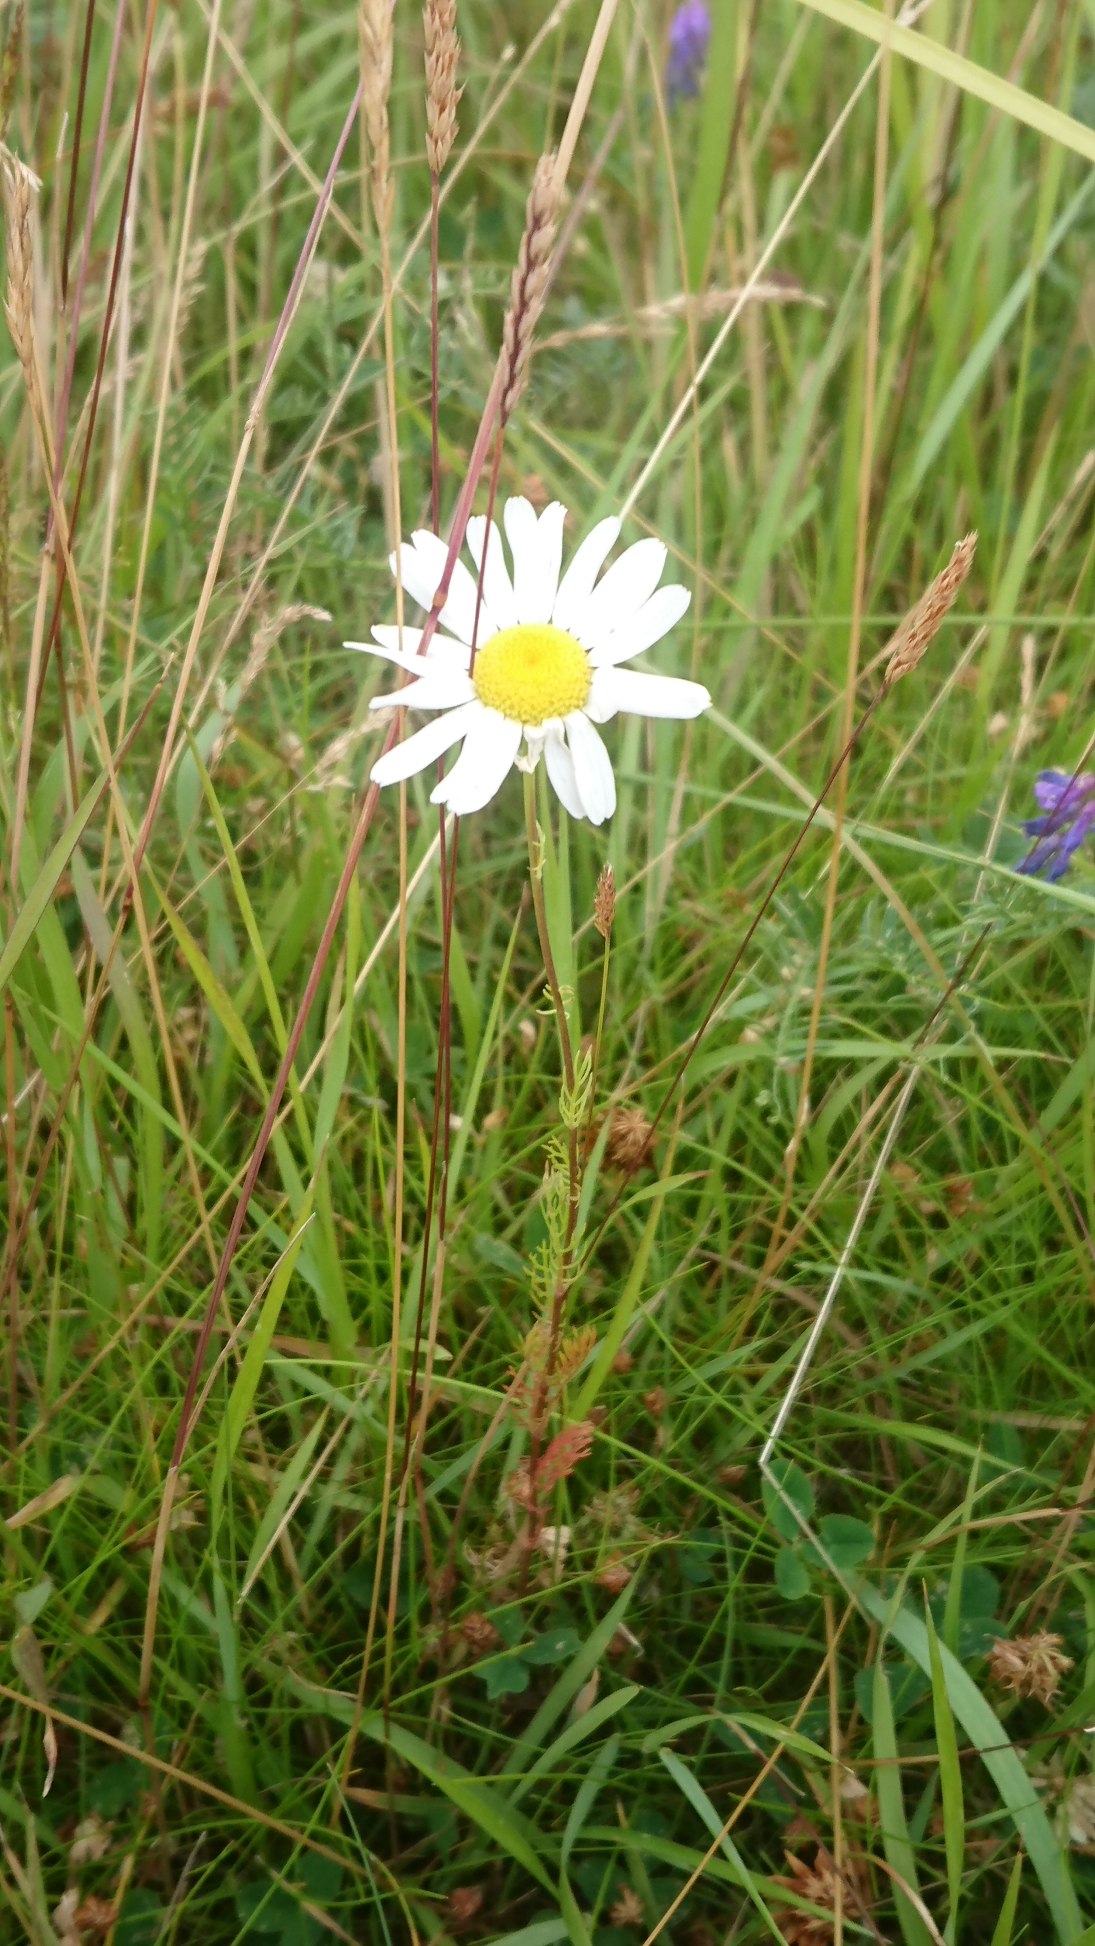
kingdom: Plantae
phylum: Tracheophyta
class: Magnoliopsida
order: Asterales
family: Asteraceae
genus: Tripleurospermum
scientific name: Tripleurospermum inodorum
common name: Lugtløs kamille
